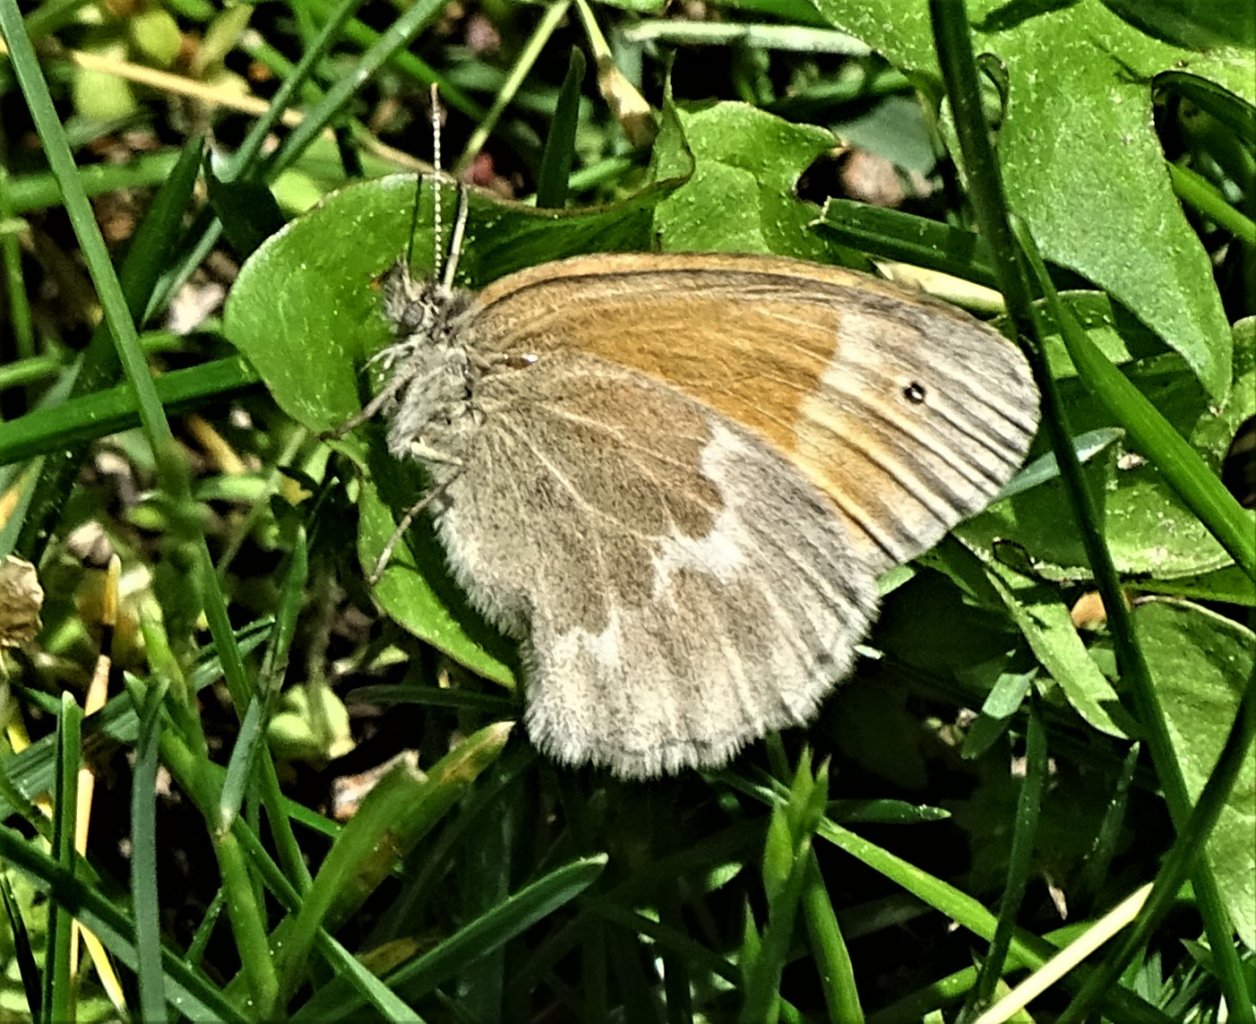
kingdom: Animalia
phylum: Arthropoda
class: Insecta
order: Lepidoptera
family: Nymphalidae
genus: Coenonympha
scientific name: Coenonympha tullia
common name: Large Heath
